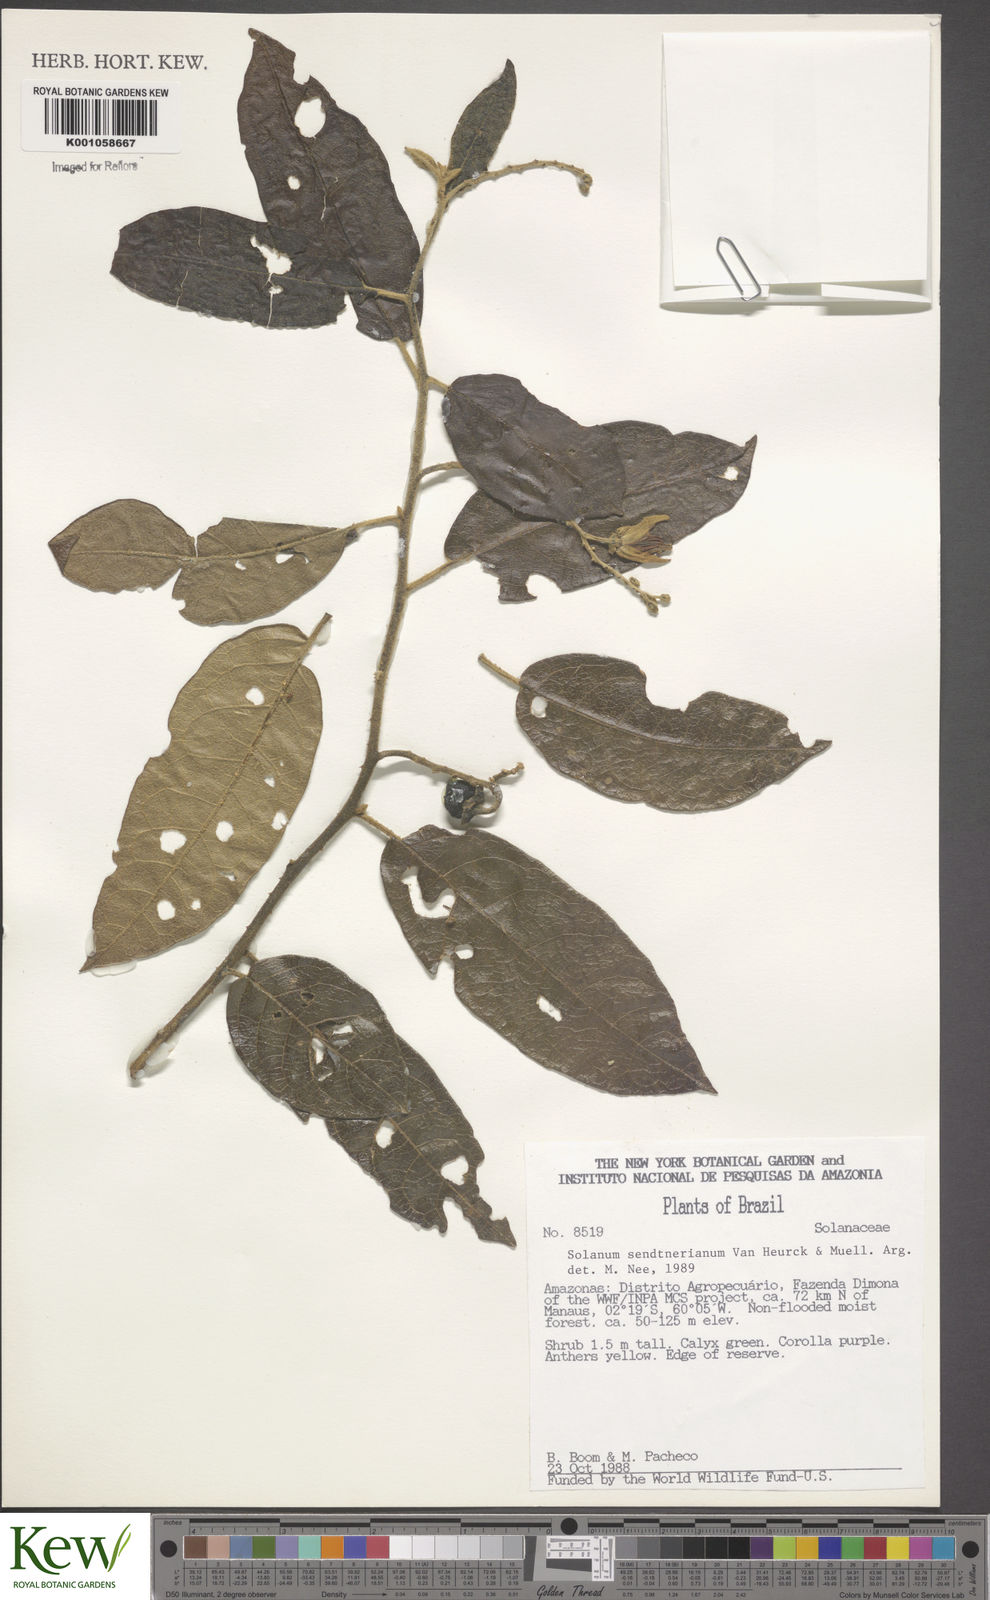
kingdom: Plantae
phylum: Tracheophyta
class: Magnoliopsida
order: Solanales
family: Solanaceae
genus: Solanum
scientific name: Solanum
